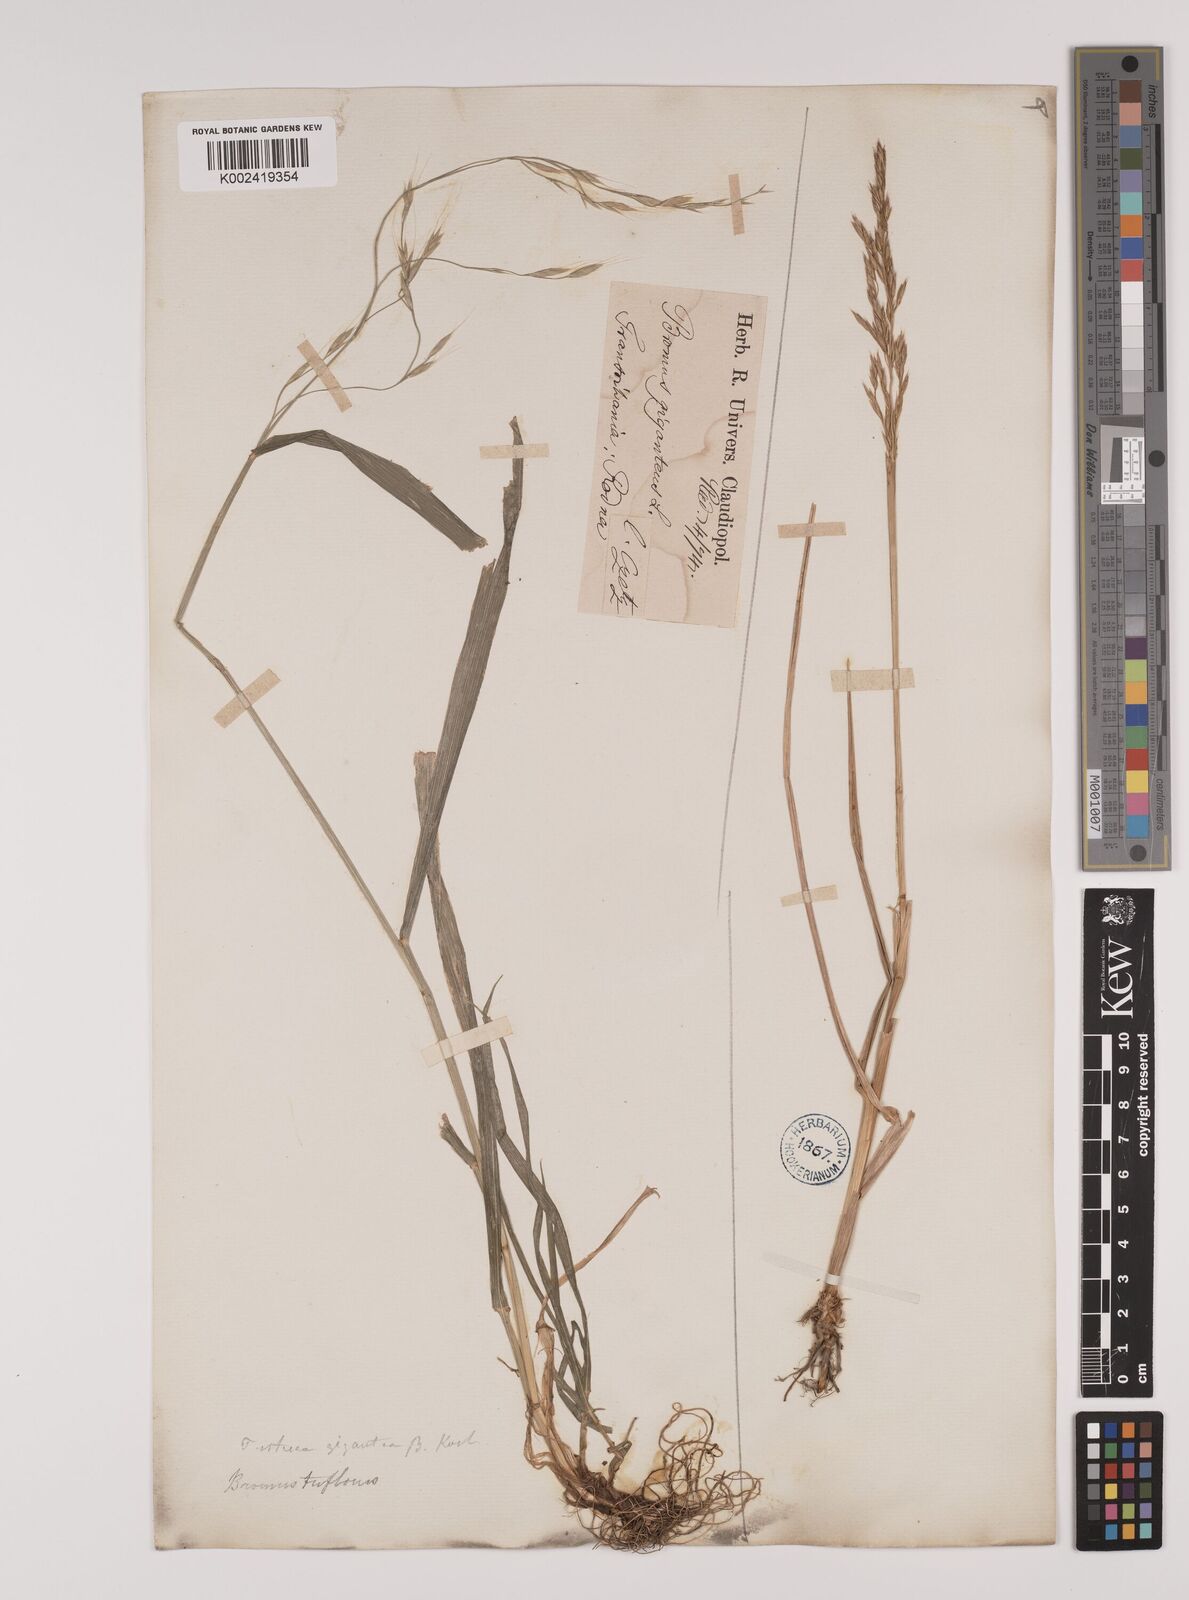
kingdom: Plantae
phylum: Tracheophyta
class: Liliopsida
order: Poales
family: Poaceae
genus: Lolium
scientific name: Lolium giganteum
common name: Giant fescue
